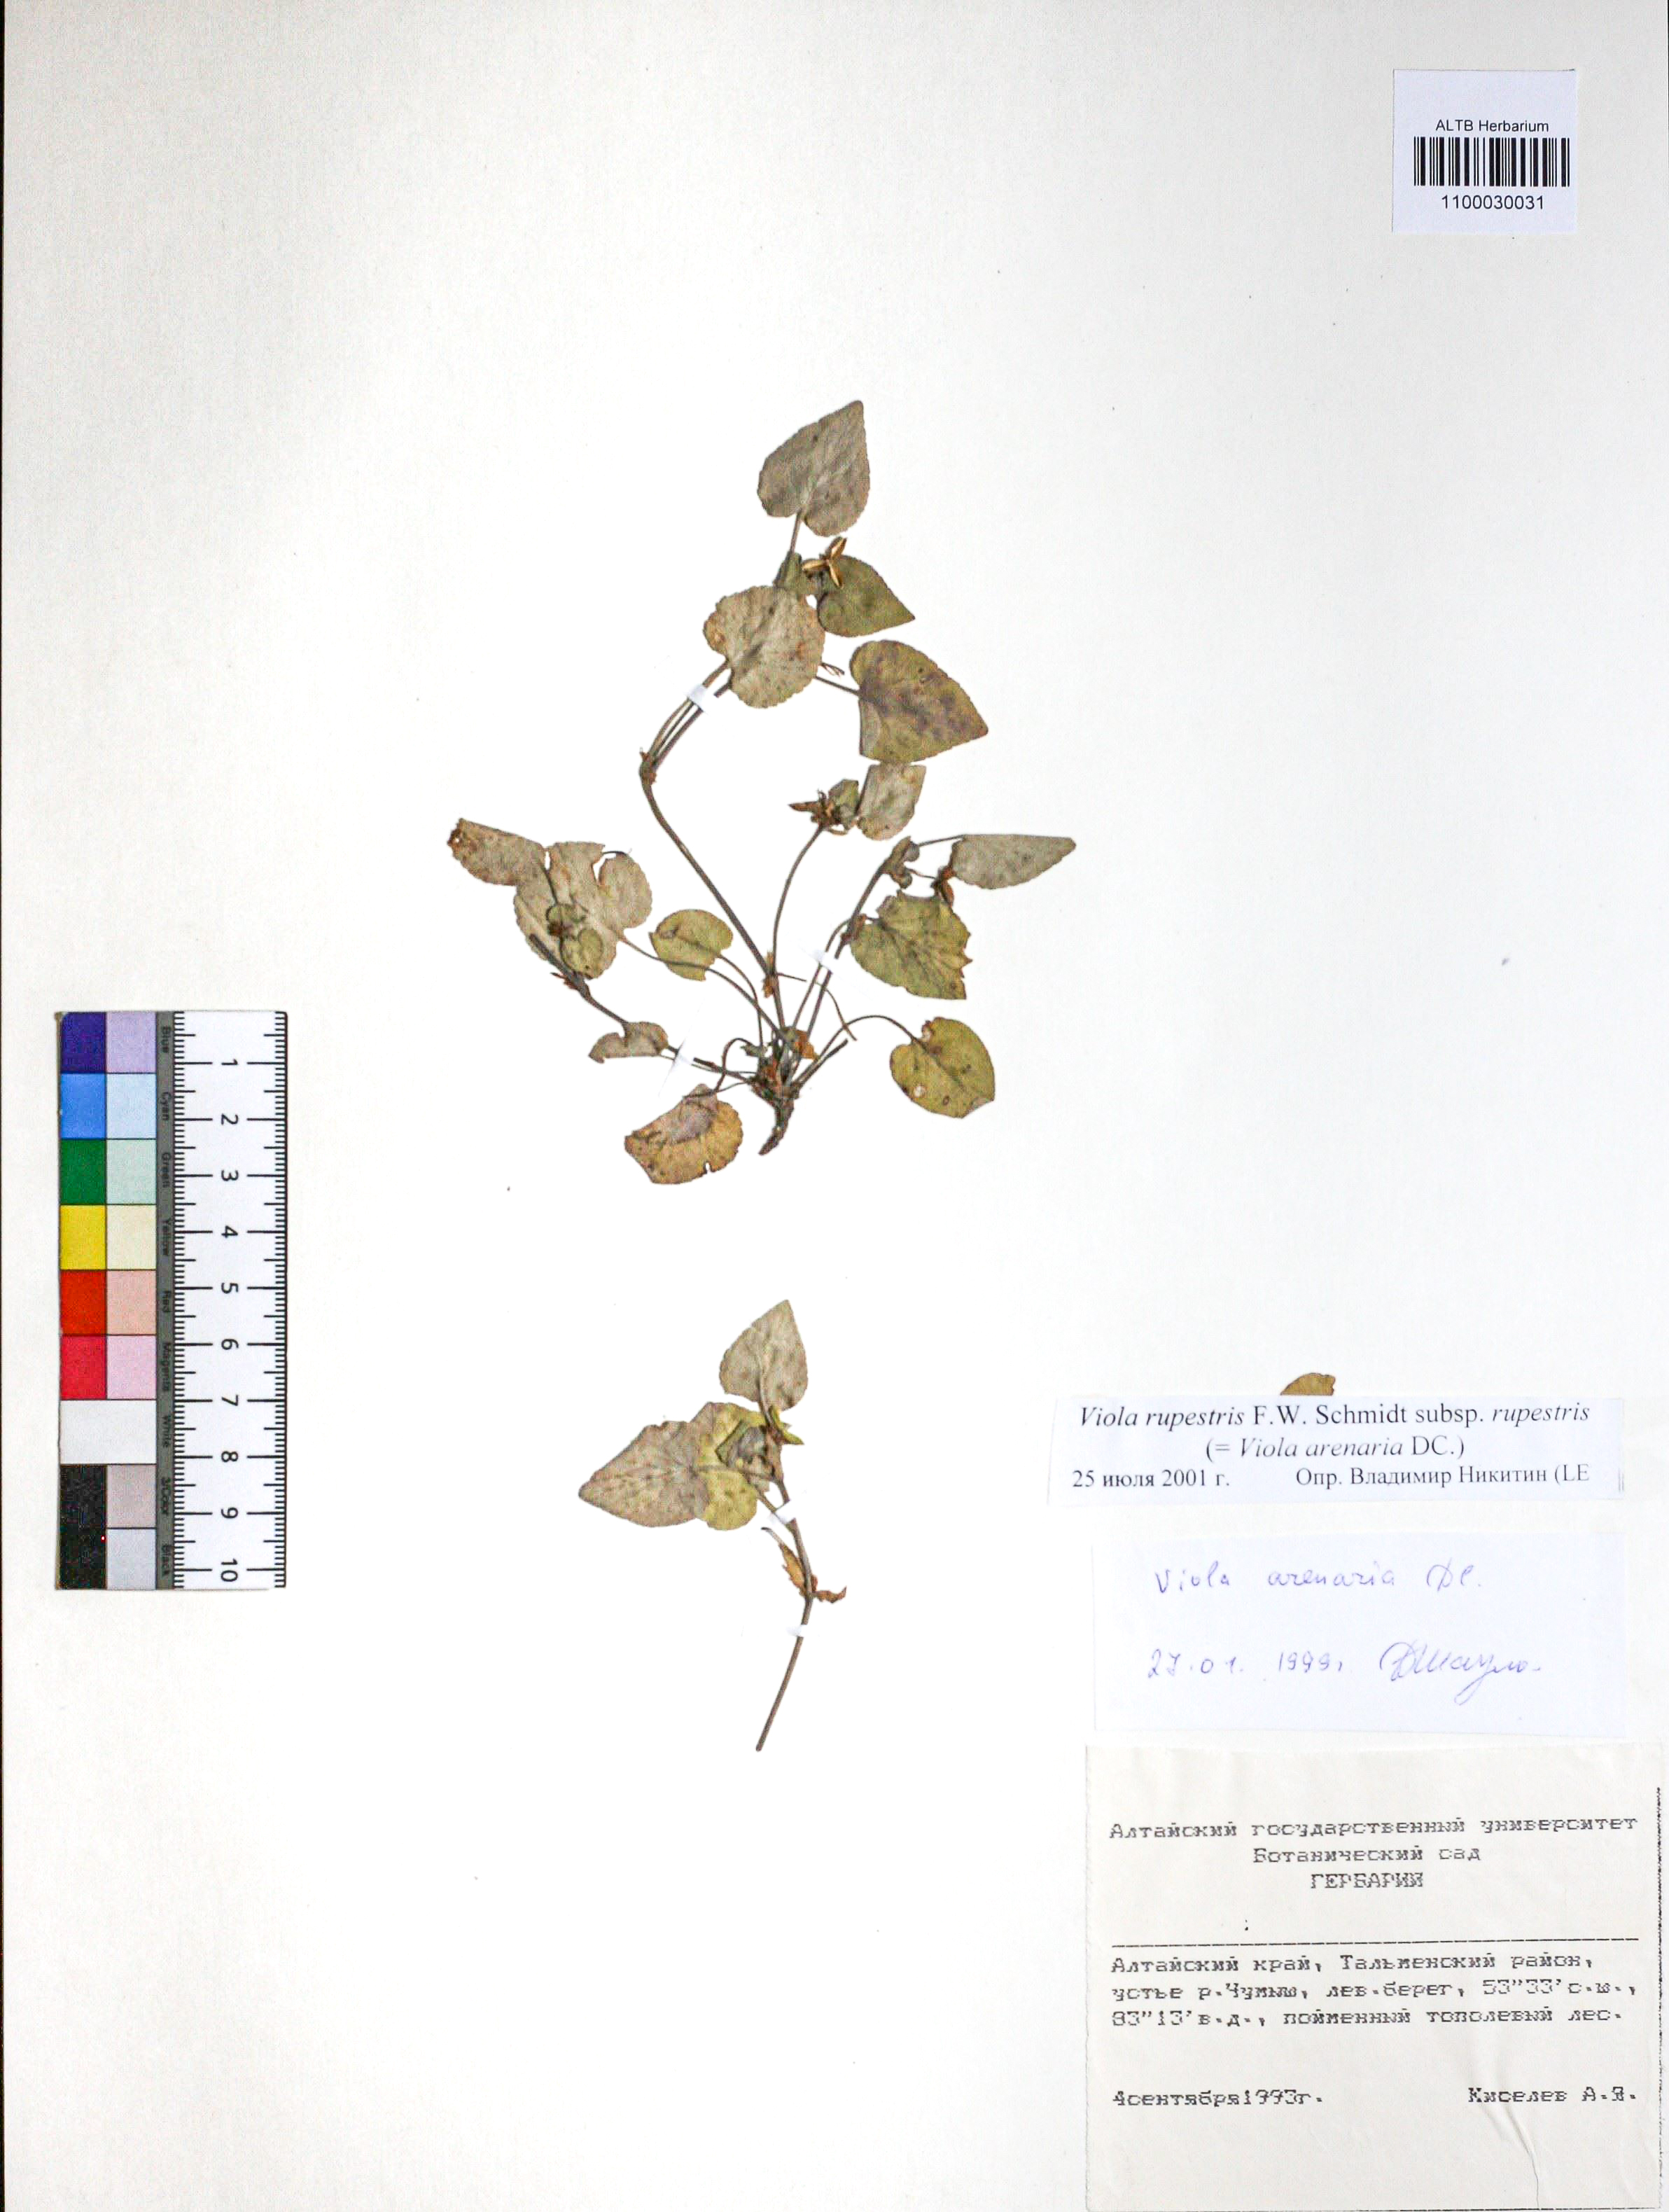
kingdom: Plantae
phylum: Tracheophyta
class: Magnoliopsida
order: Malpighiales
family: Violaceae
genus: Viola
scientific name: Viola rupestris
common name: Teesdale violet
